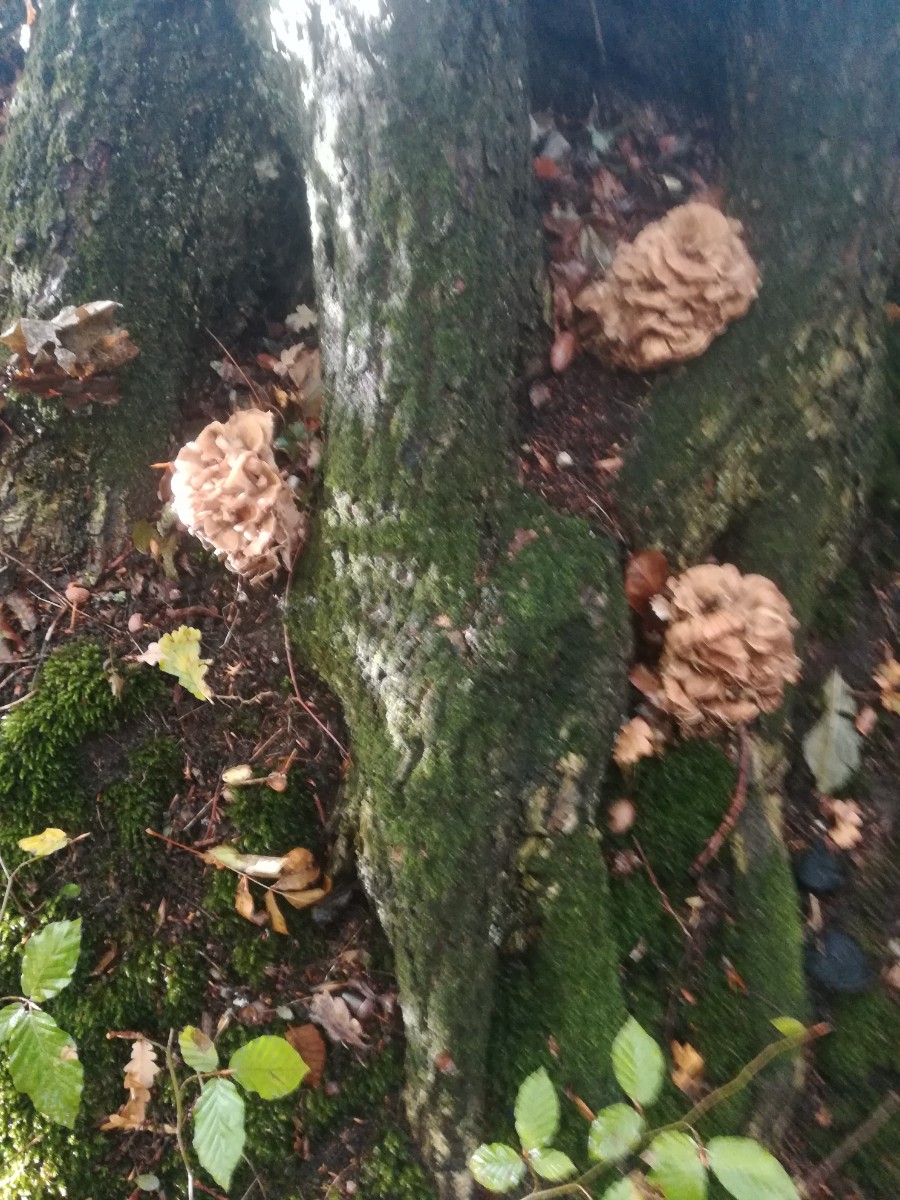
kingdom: Fungi
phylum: Basidiomycota
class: Agaricomycetes
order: Polyporales
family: Grifolaceae
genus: Grifola
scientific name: Grifola frondosa
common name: tueporesvamp
